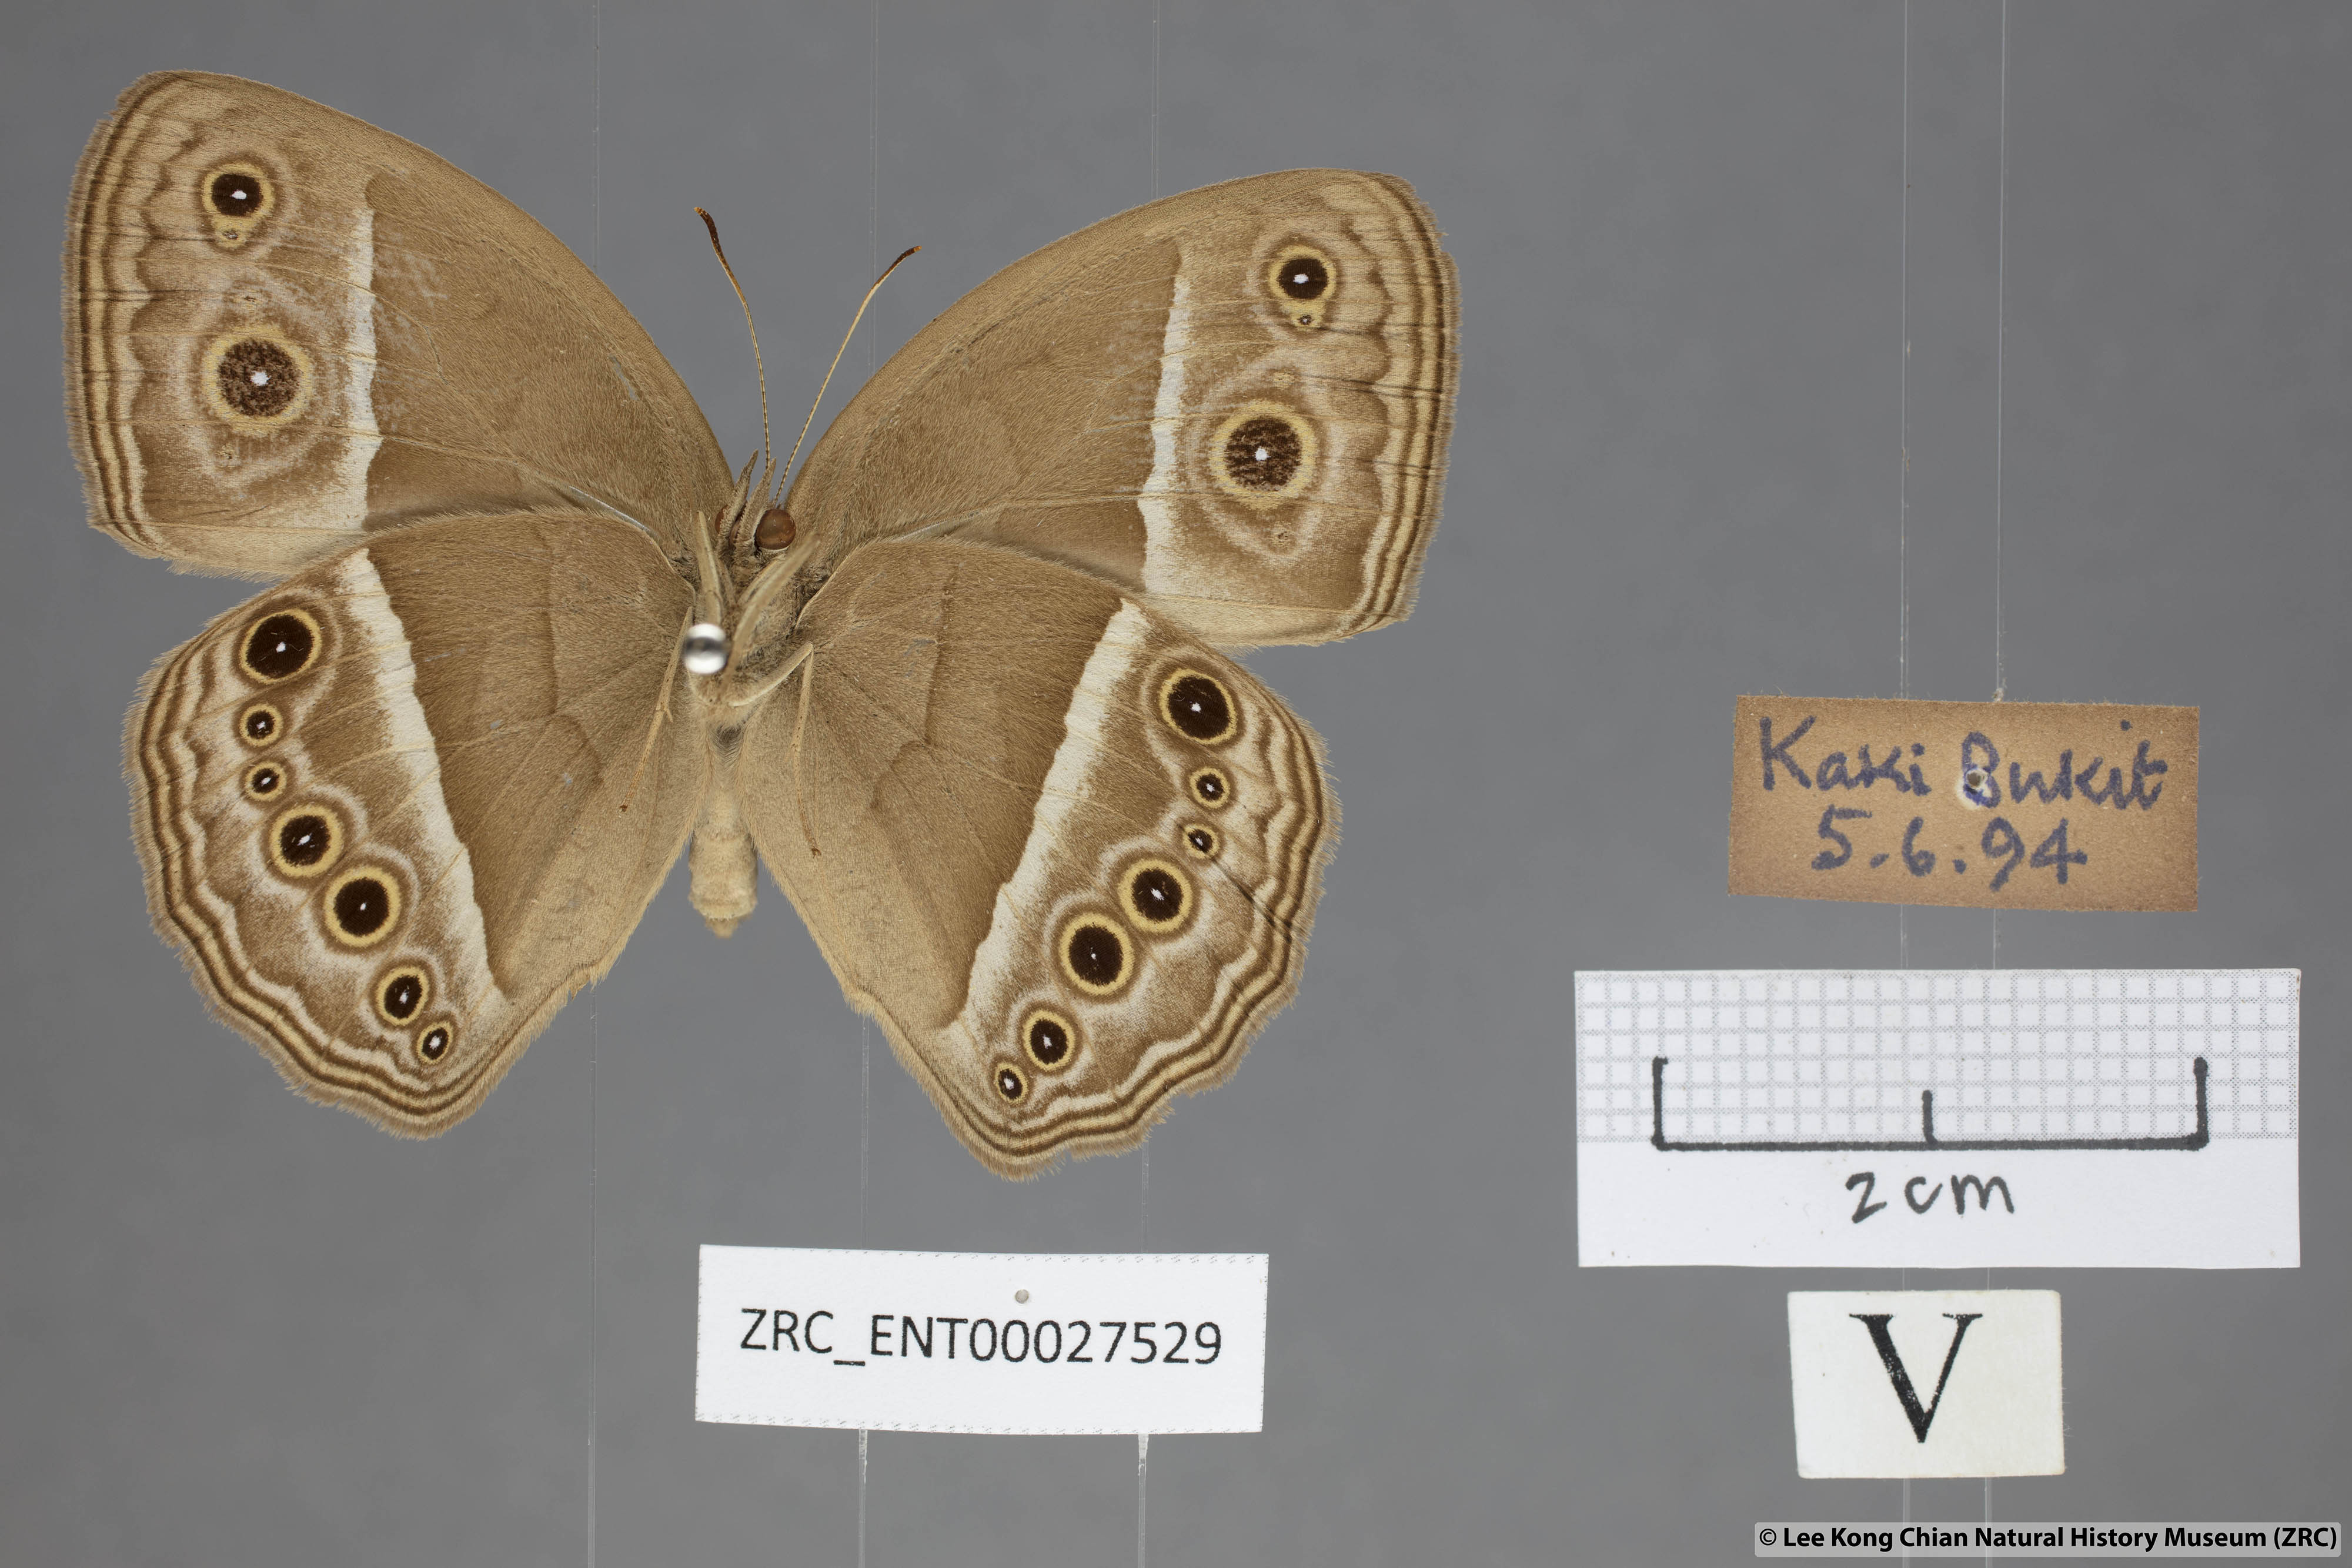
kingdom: Animalia
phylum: Arthropoda
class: Insecta
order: Lepidoptera
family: Nymphalidae
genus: Mycalesis
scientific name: Mycalesis perseoides
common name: Burmese bushbrown
